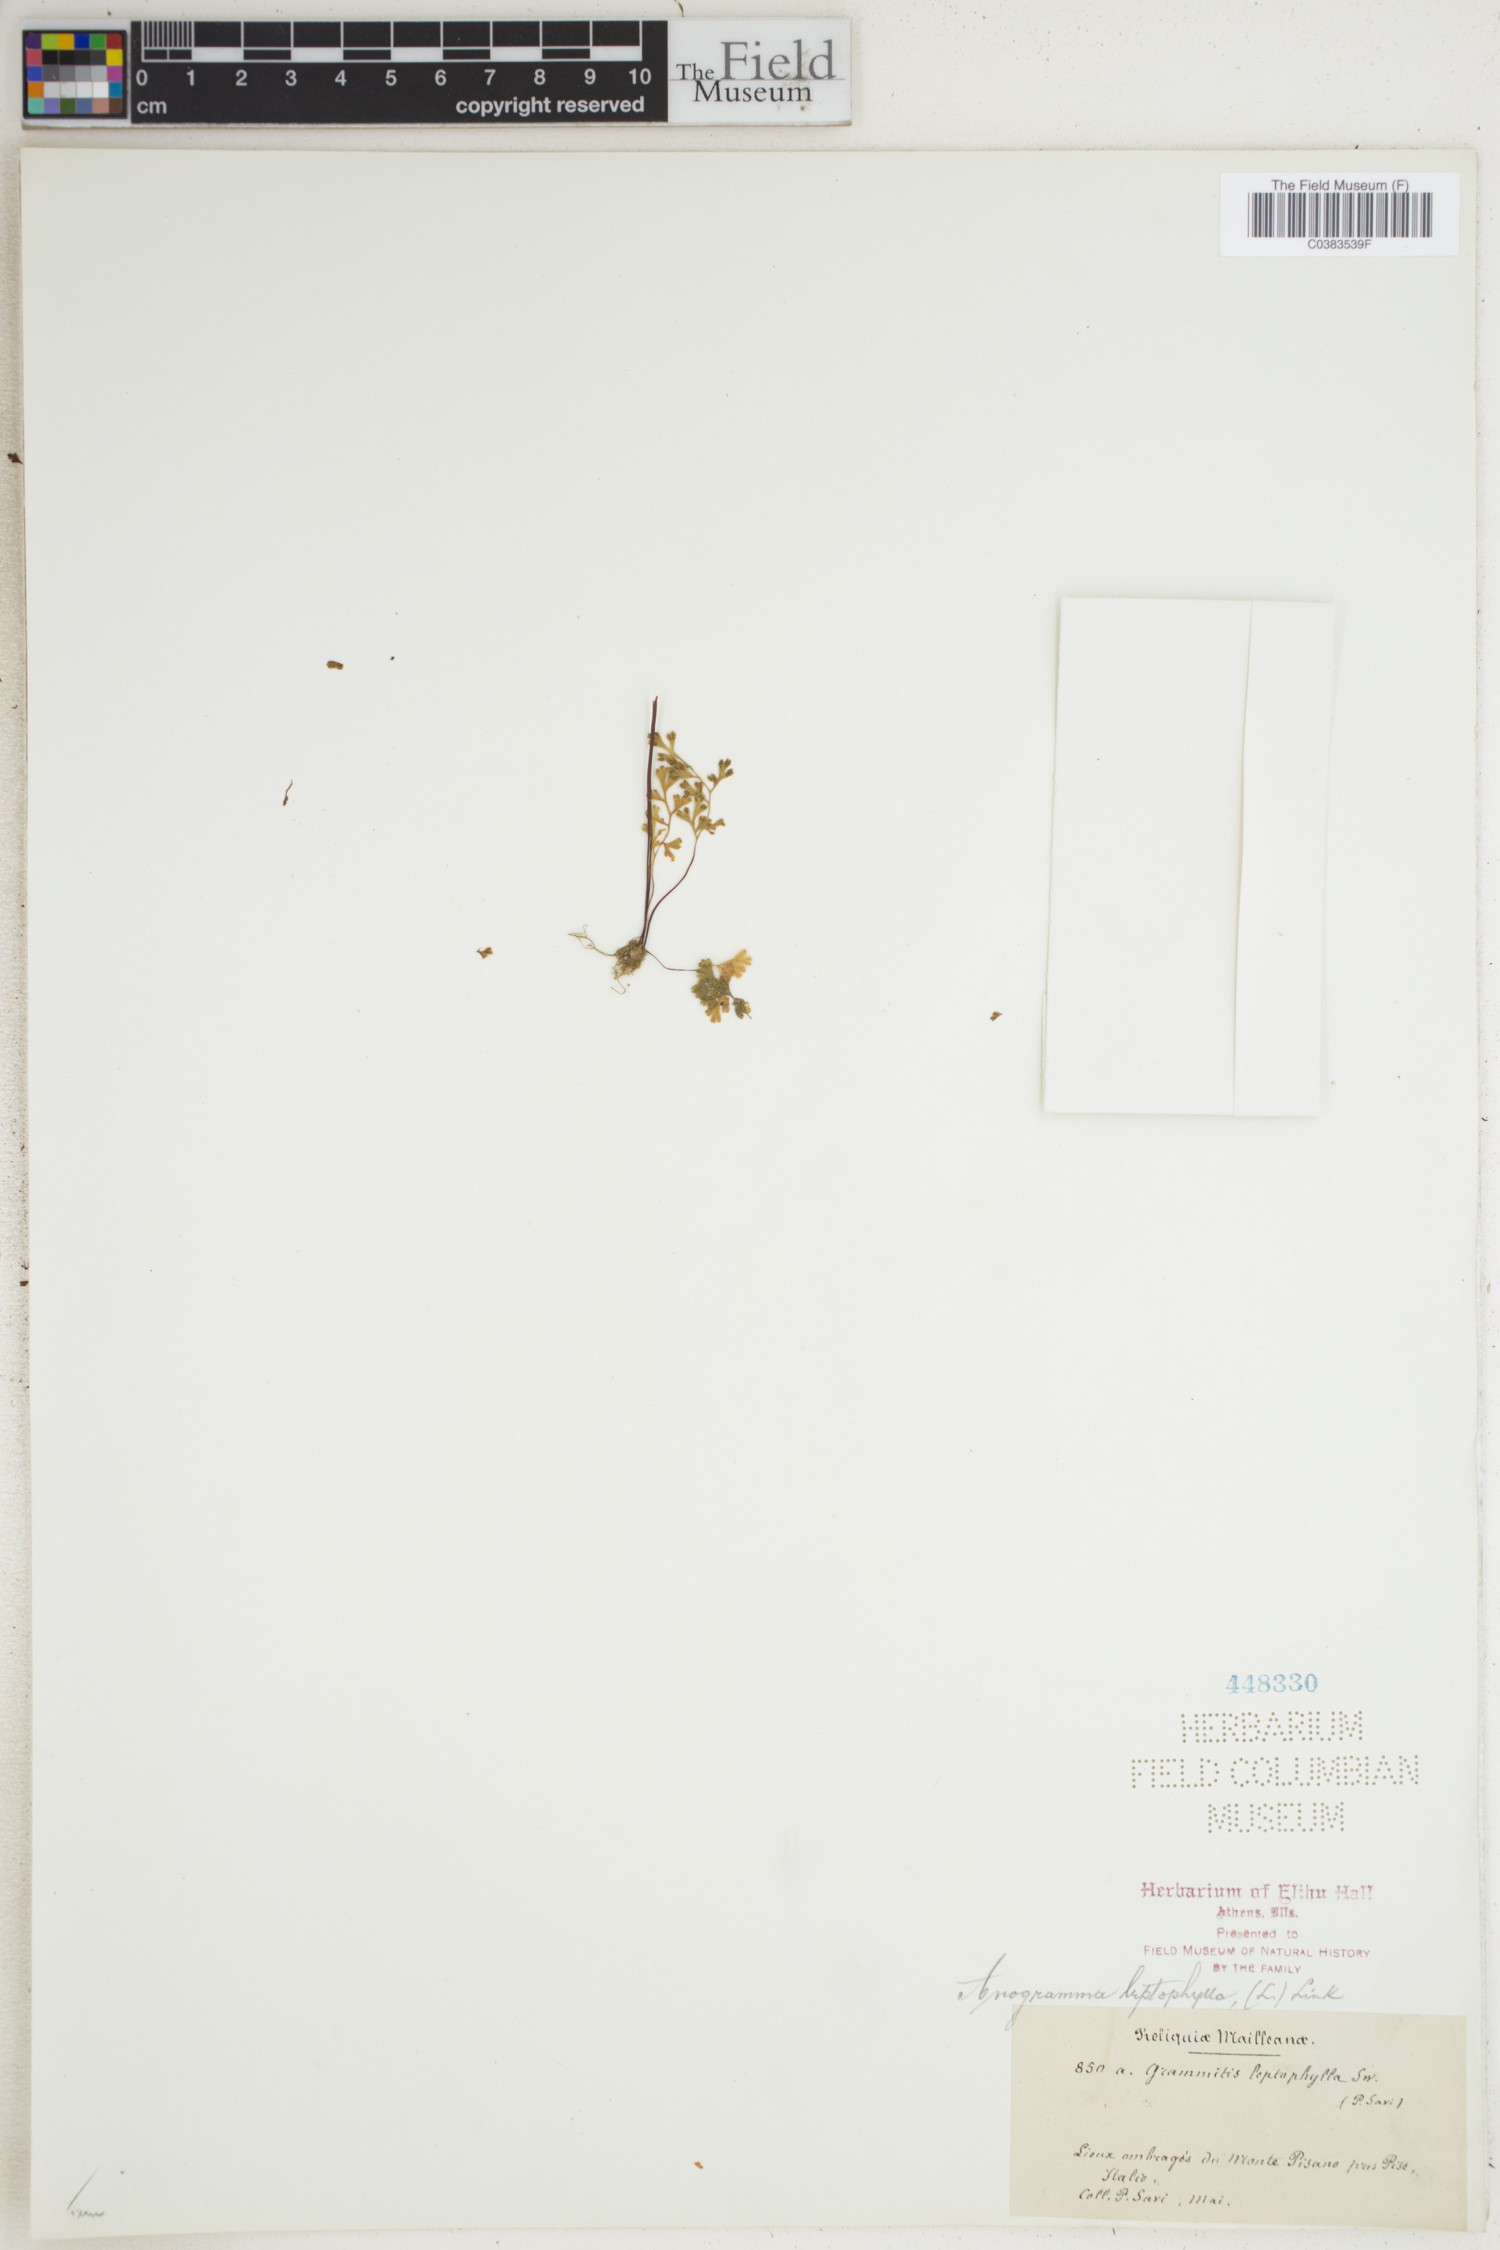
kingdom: Plantae
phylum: Tracheophyta
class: Polypodiopsida
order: Polypodiales
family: Pteridaceae
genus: Anogramma
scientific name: Anogramma leptophylla
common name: Jersey fern
